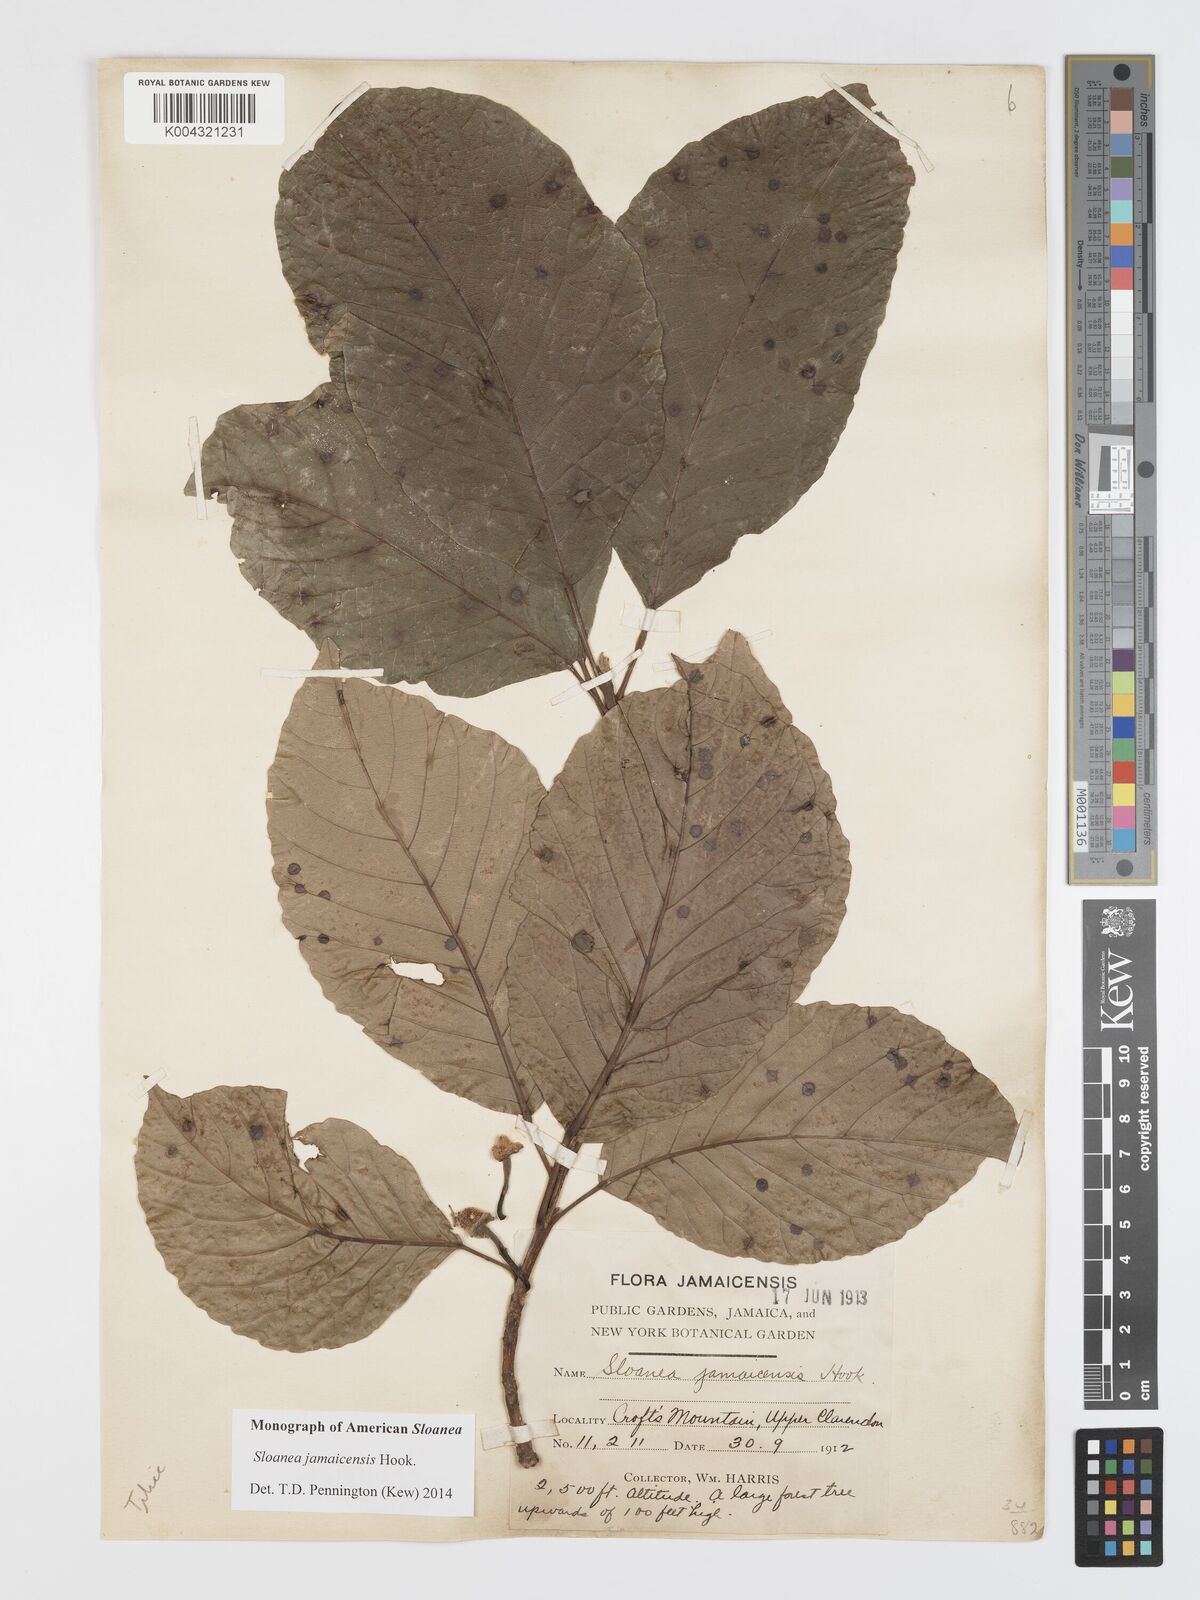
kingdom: Plantae
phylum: Tracheophyta
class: Magnoliopsida
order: Oxalidales
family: Elaeocarpaceae
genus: Sloanea
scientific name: Sloanea jamaicensis
